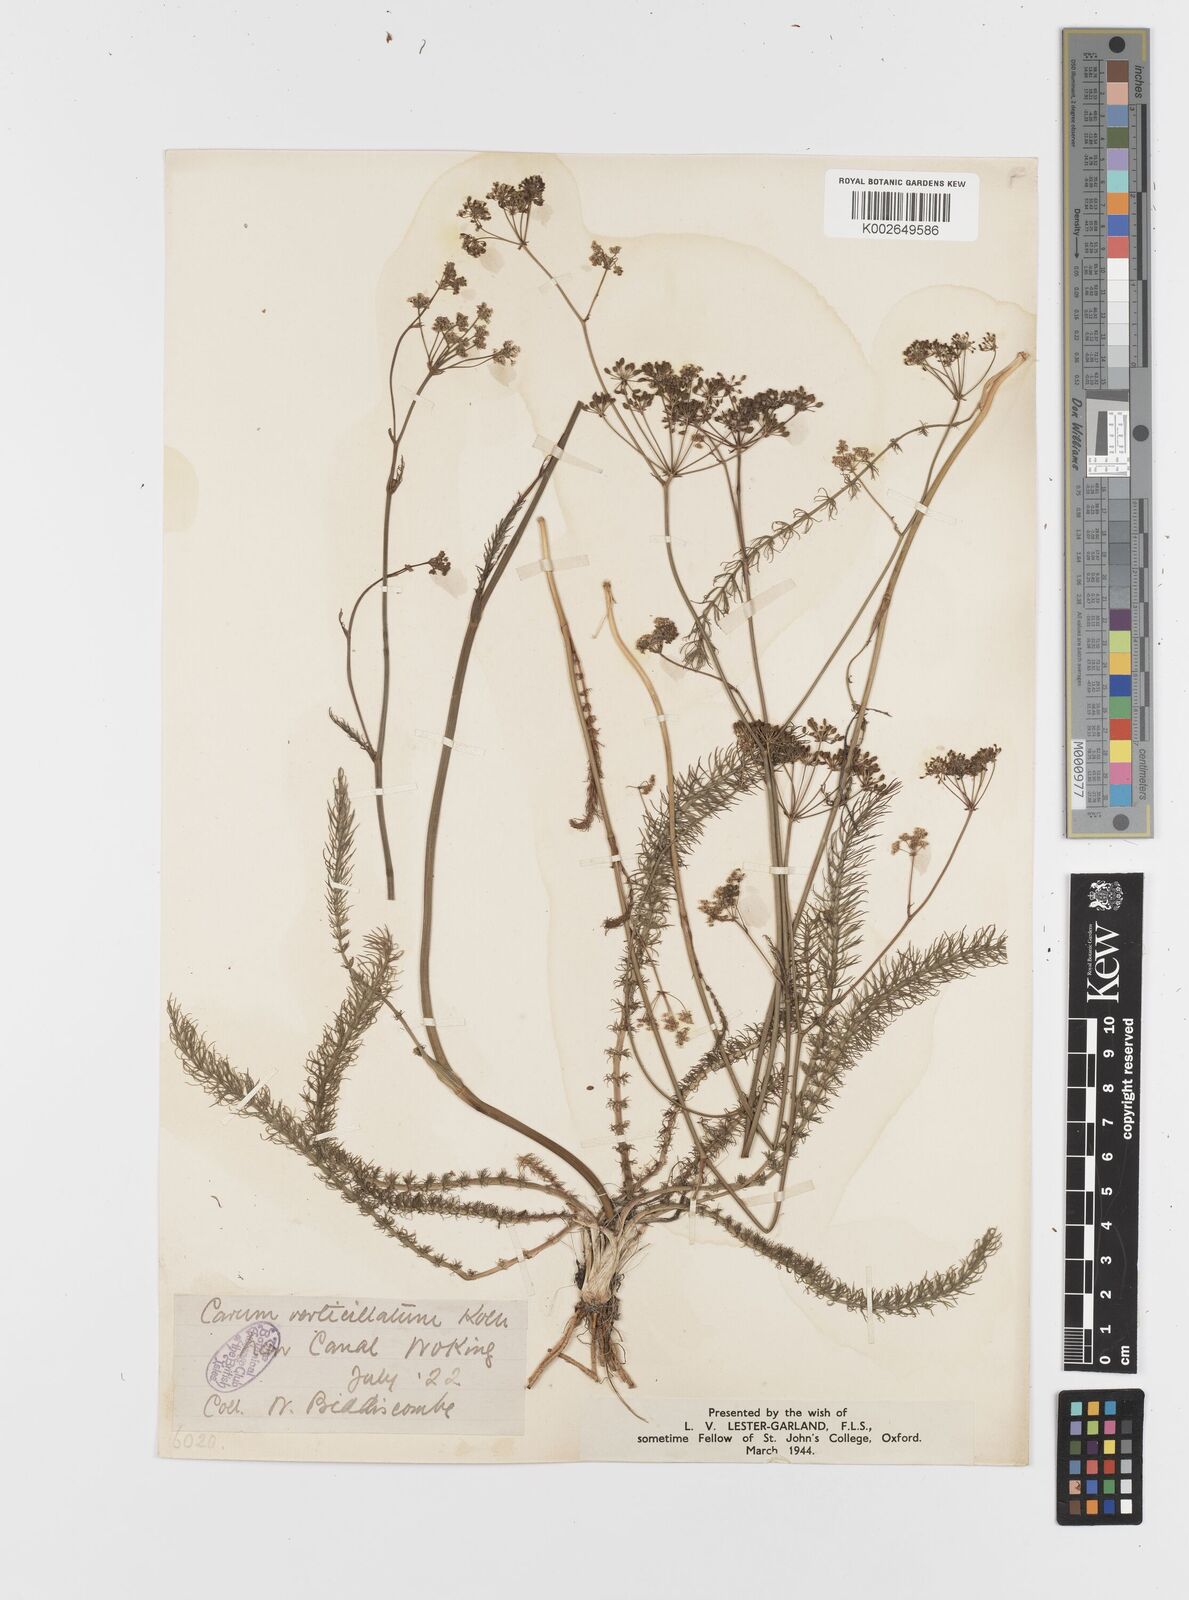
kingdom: Plantae
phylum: Tracheophyta
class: Magnoliopsida
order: Apiales
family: Apiaceae
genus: Trocdaris
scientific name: Trocdaris verticillatum
